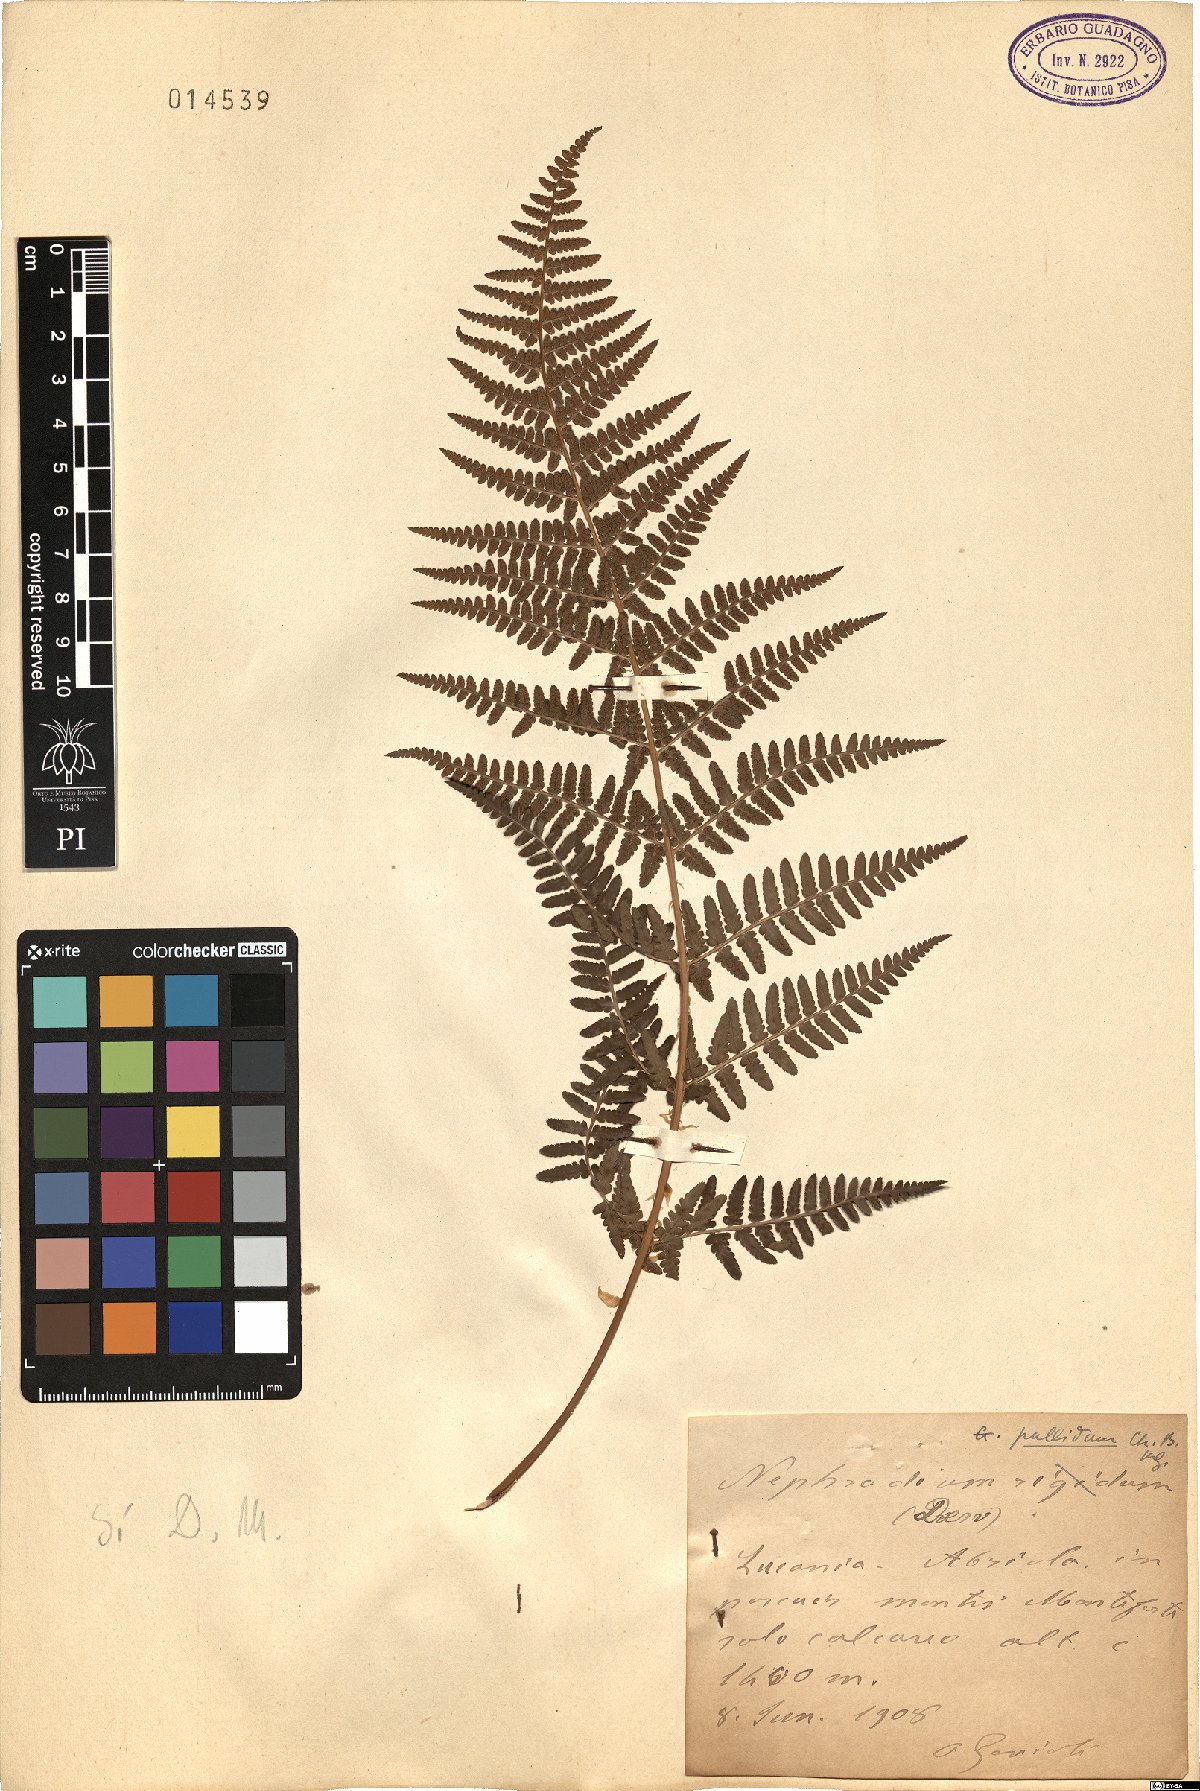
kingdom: Plantae
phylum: Tracheophyta
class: Polypodiopsida
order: Polypodiales
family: Dryopteridaceae
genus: Dryopteris
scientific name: Dryopteris pallida
